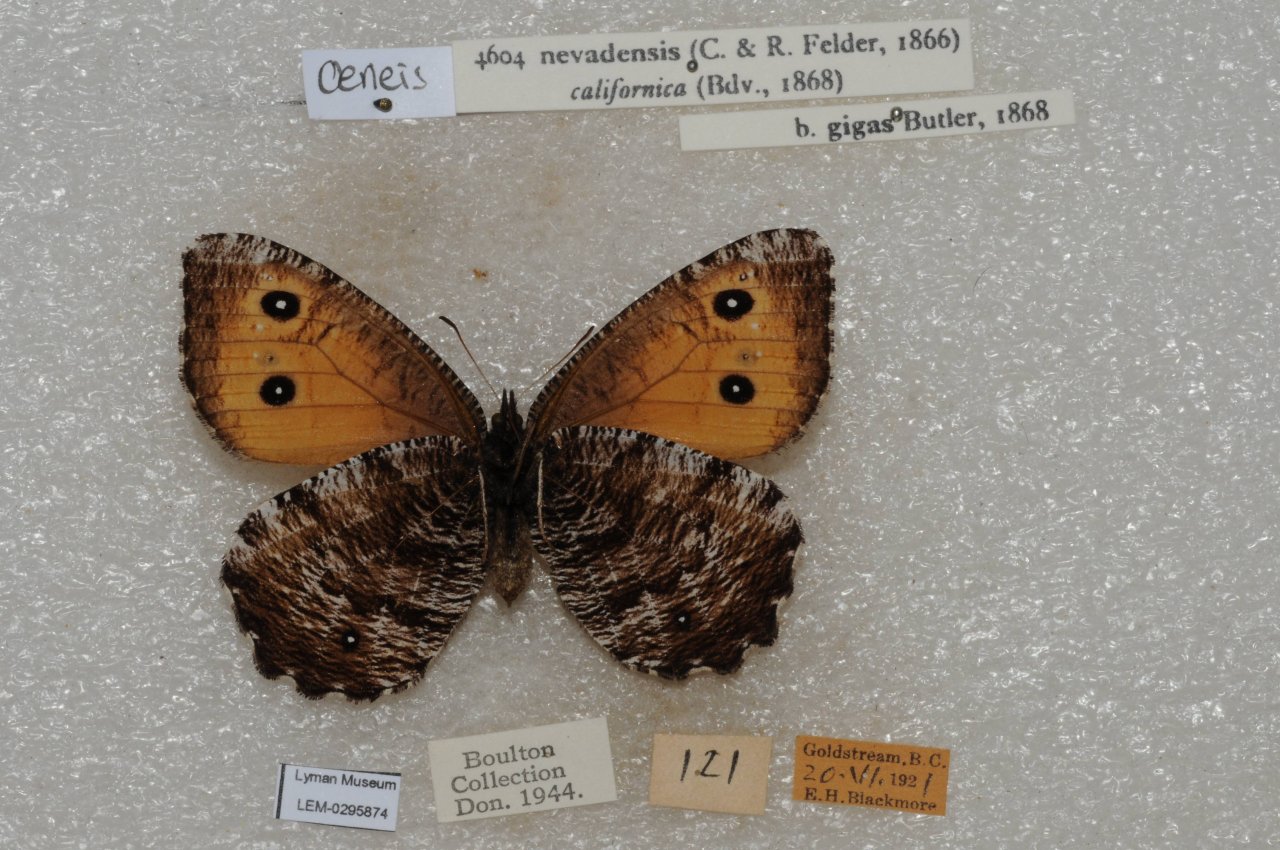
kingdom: Animalia
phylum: Arthropoda
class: Insecta
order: Lepidoptera
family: Nymphalidae
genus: Oeneis
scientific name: Oeneis nevadensis
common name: Great Arctic
